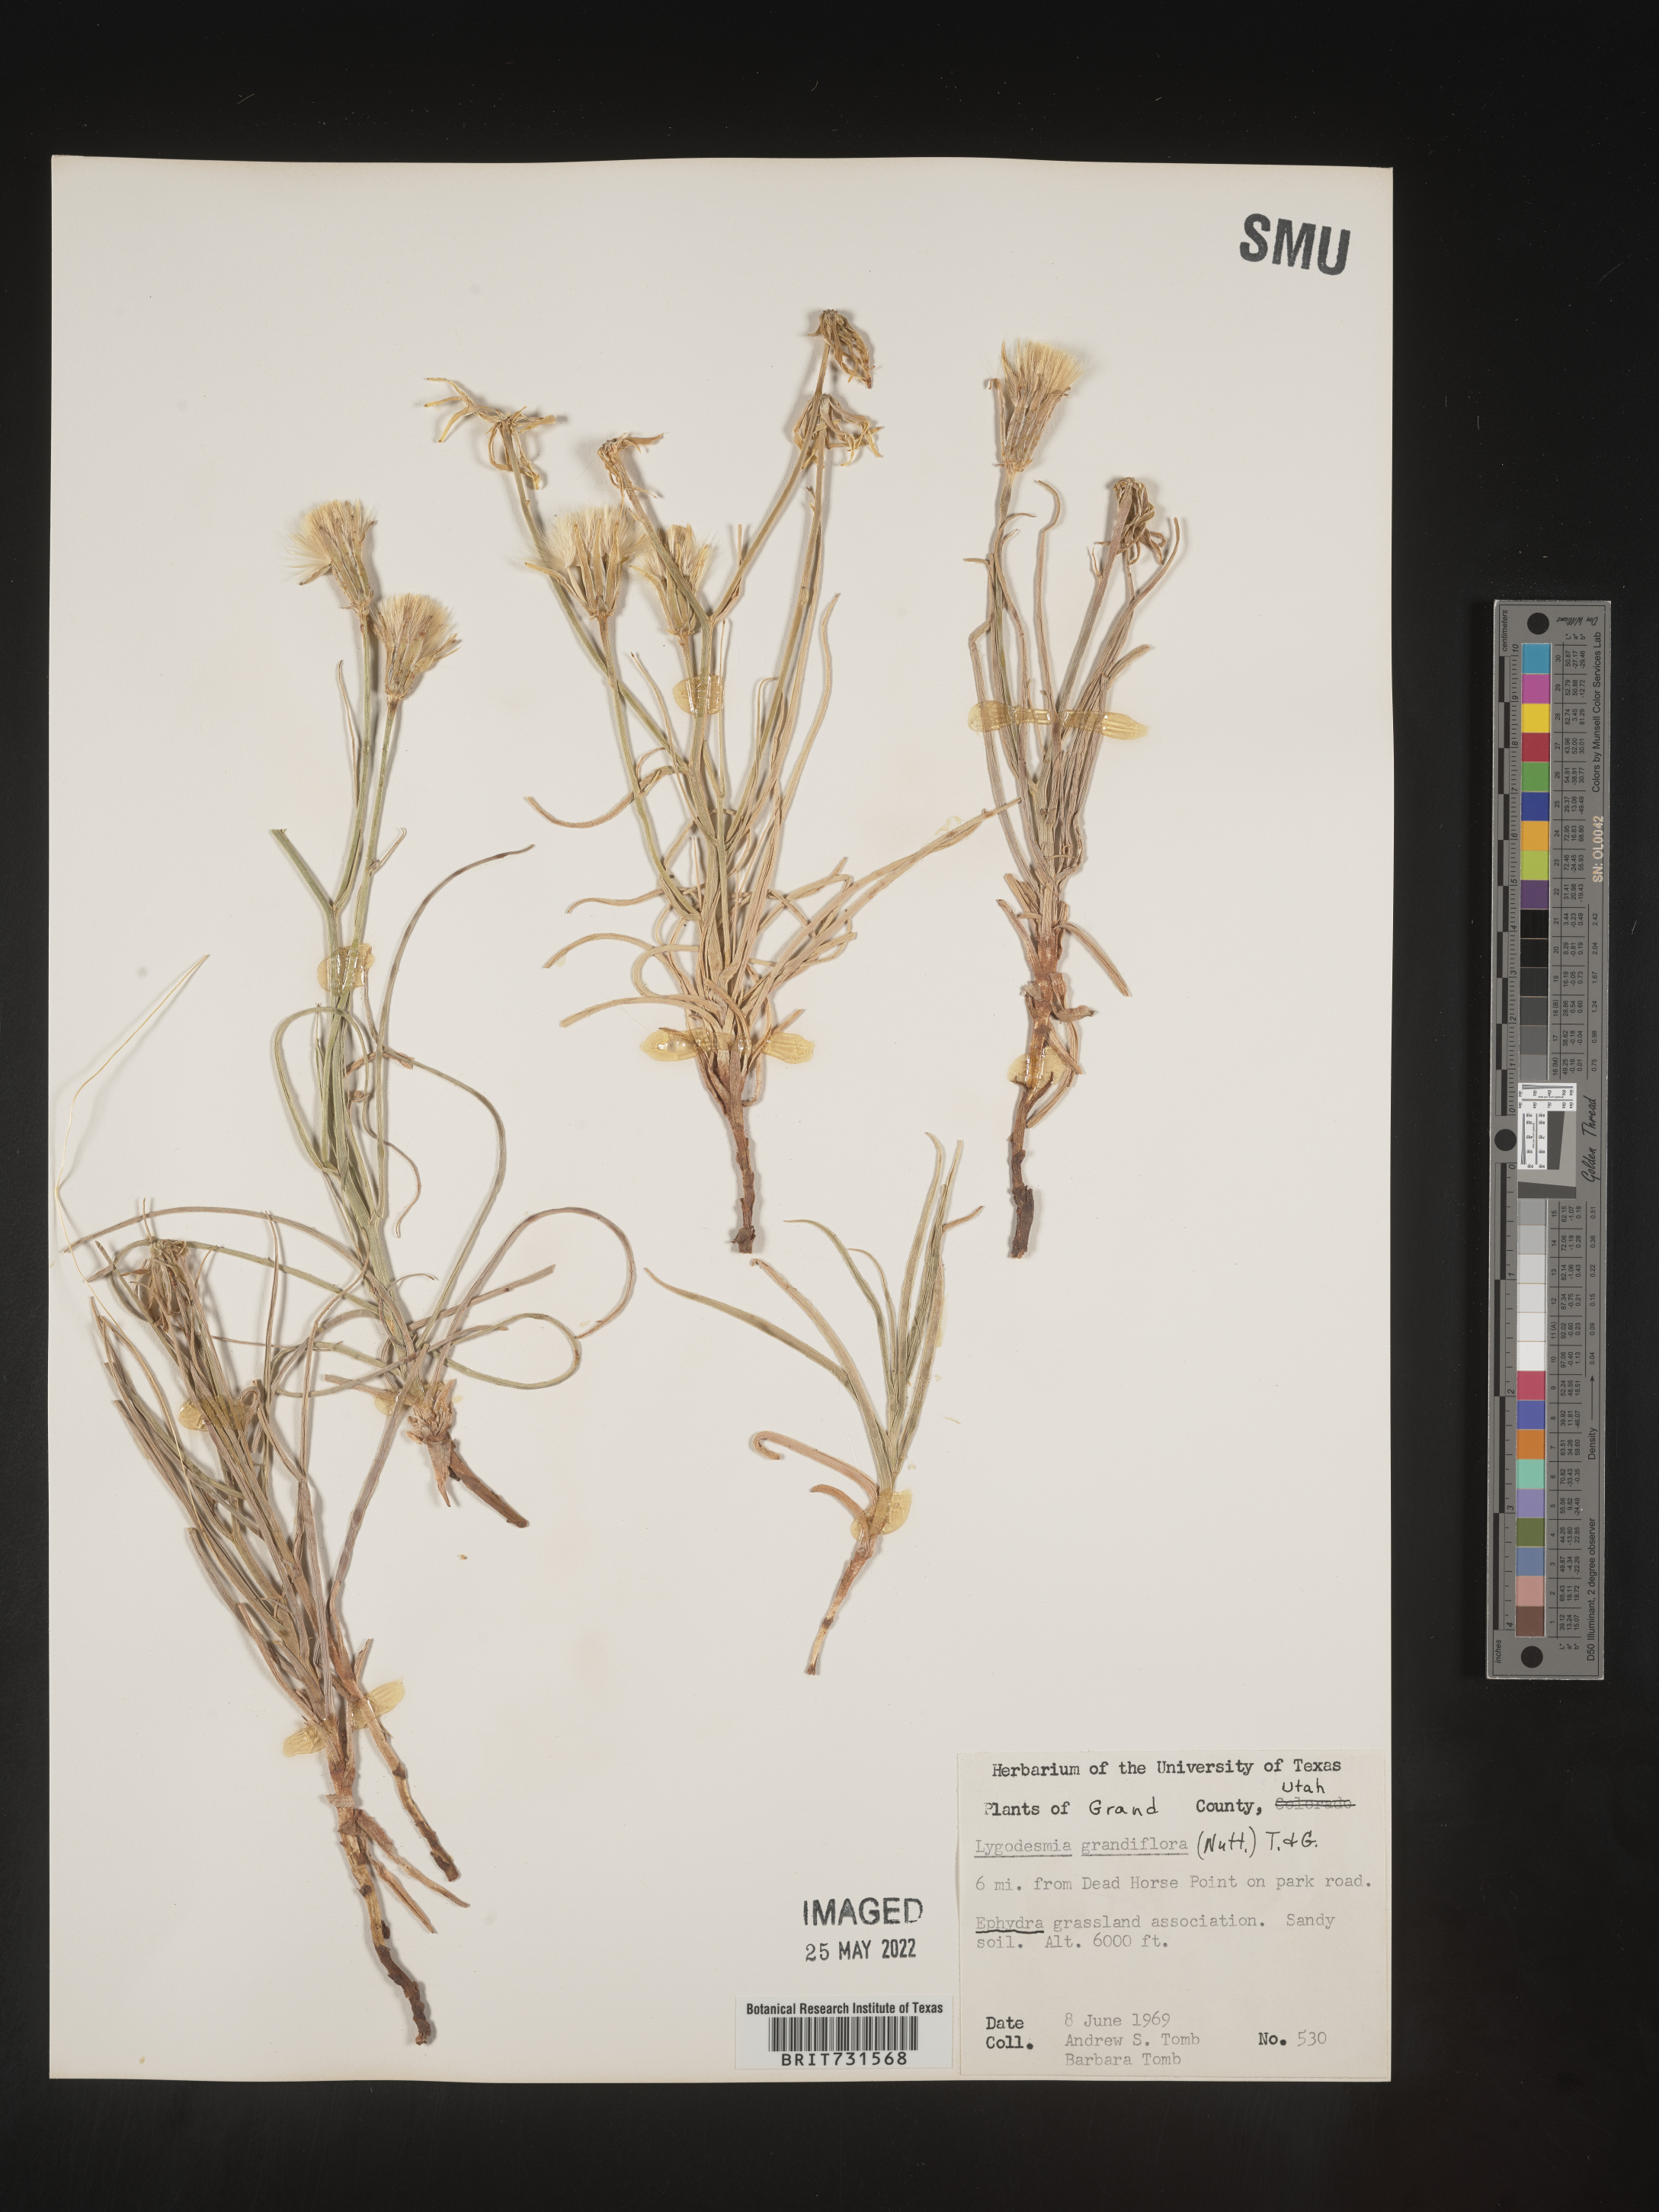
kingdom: Plantae
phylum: Tracheophyta
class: Magnoliopsida
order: Asterales
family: Asteraceae
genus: Lygodesmia
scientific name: Lygodesmia grandiflora
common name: Showy rush-pink
